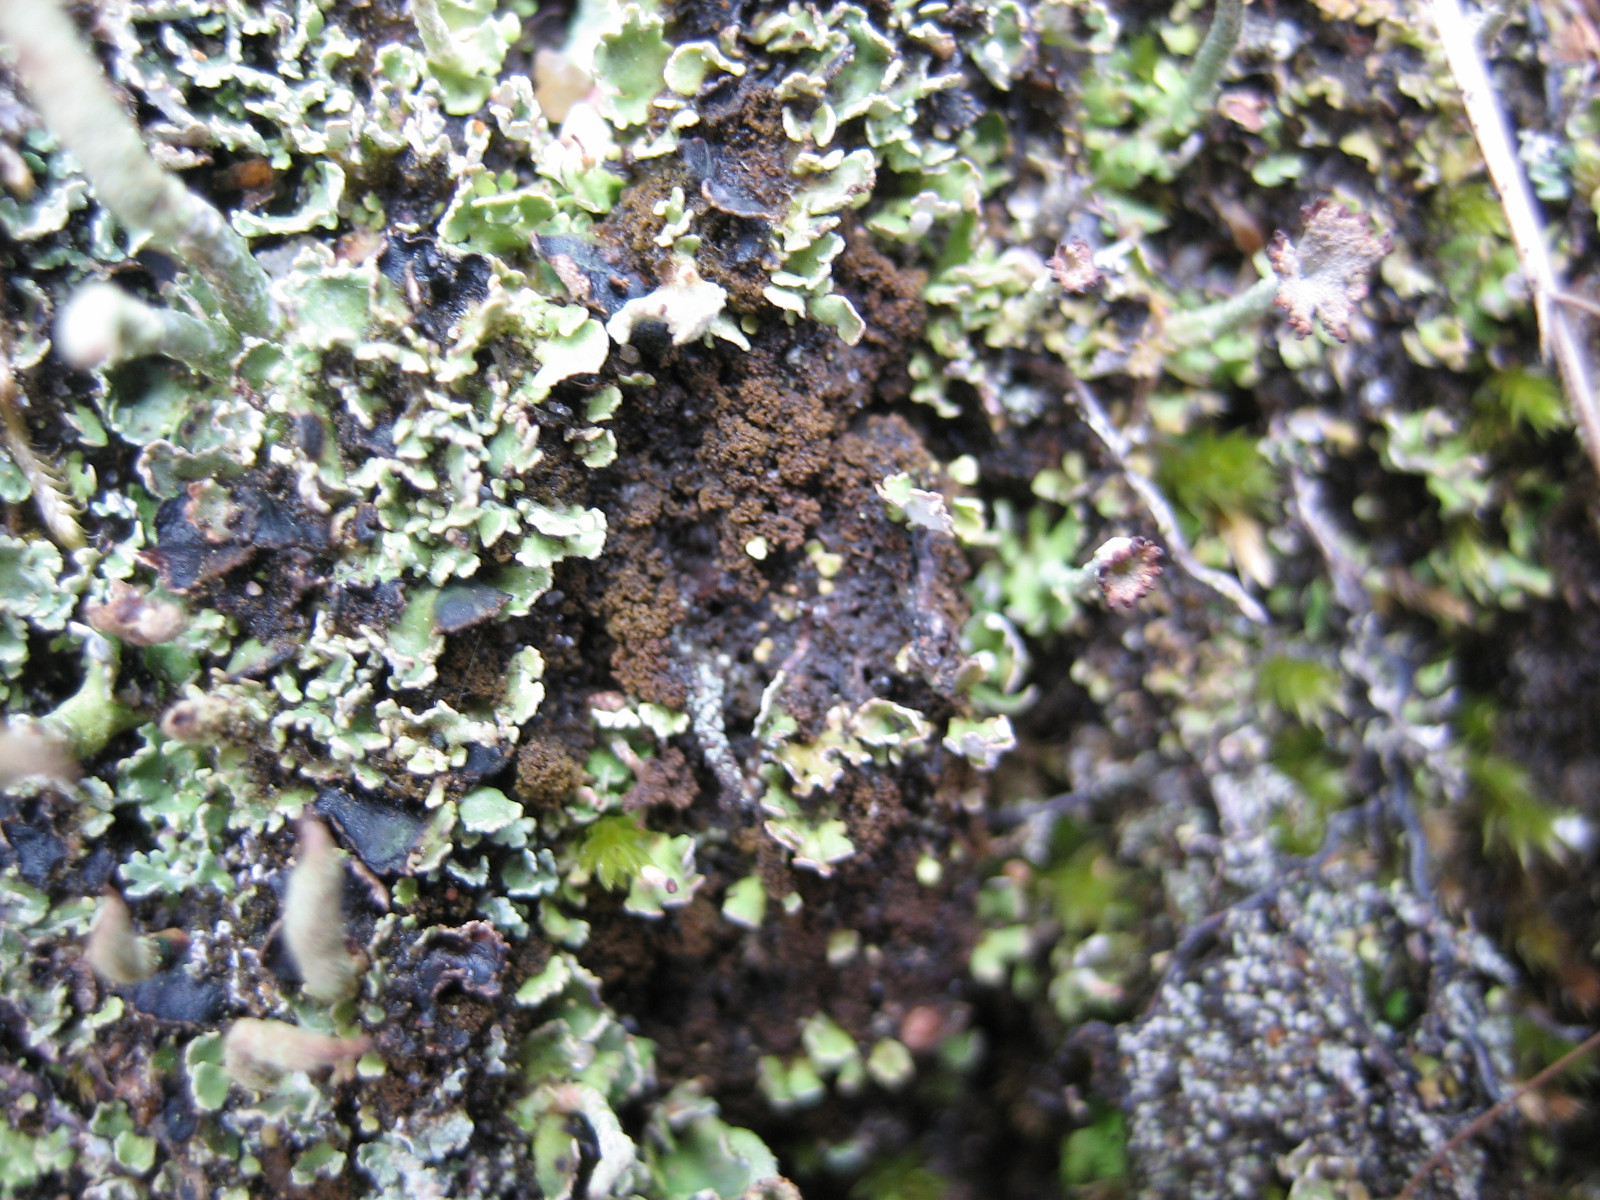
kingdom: Fungi
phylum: Ascomycota
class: Lecanoromycetes
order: Baeomycetales
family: Trapeliaceae
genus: Placynthiella
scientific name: Placynthiella icmalea
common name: stift-skivelav
